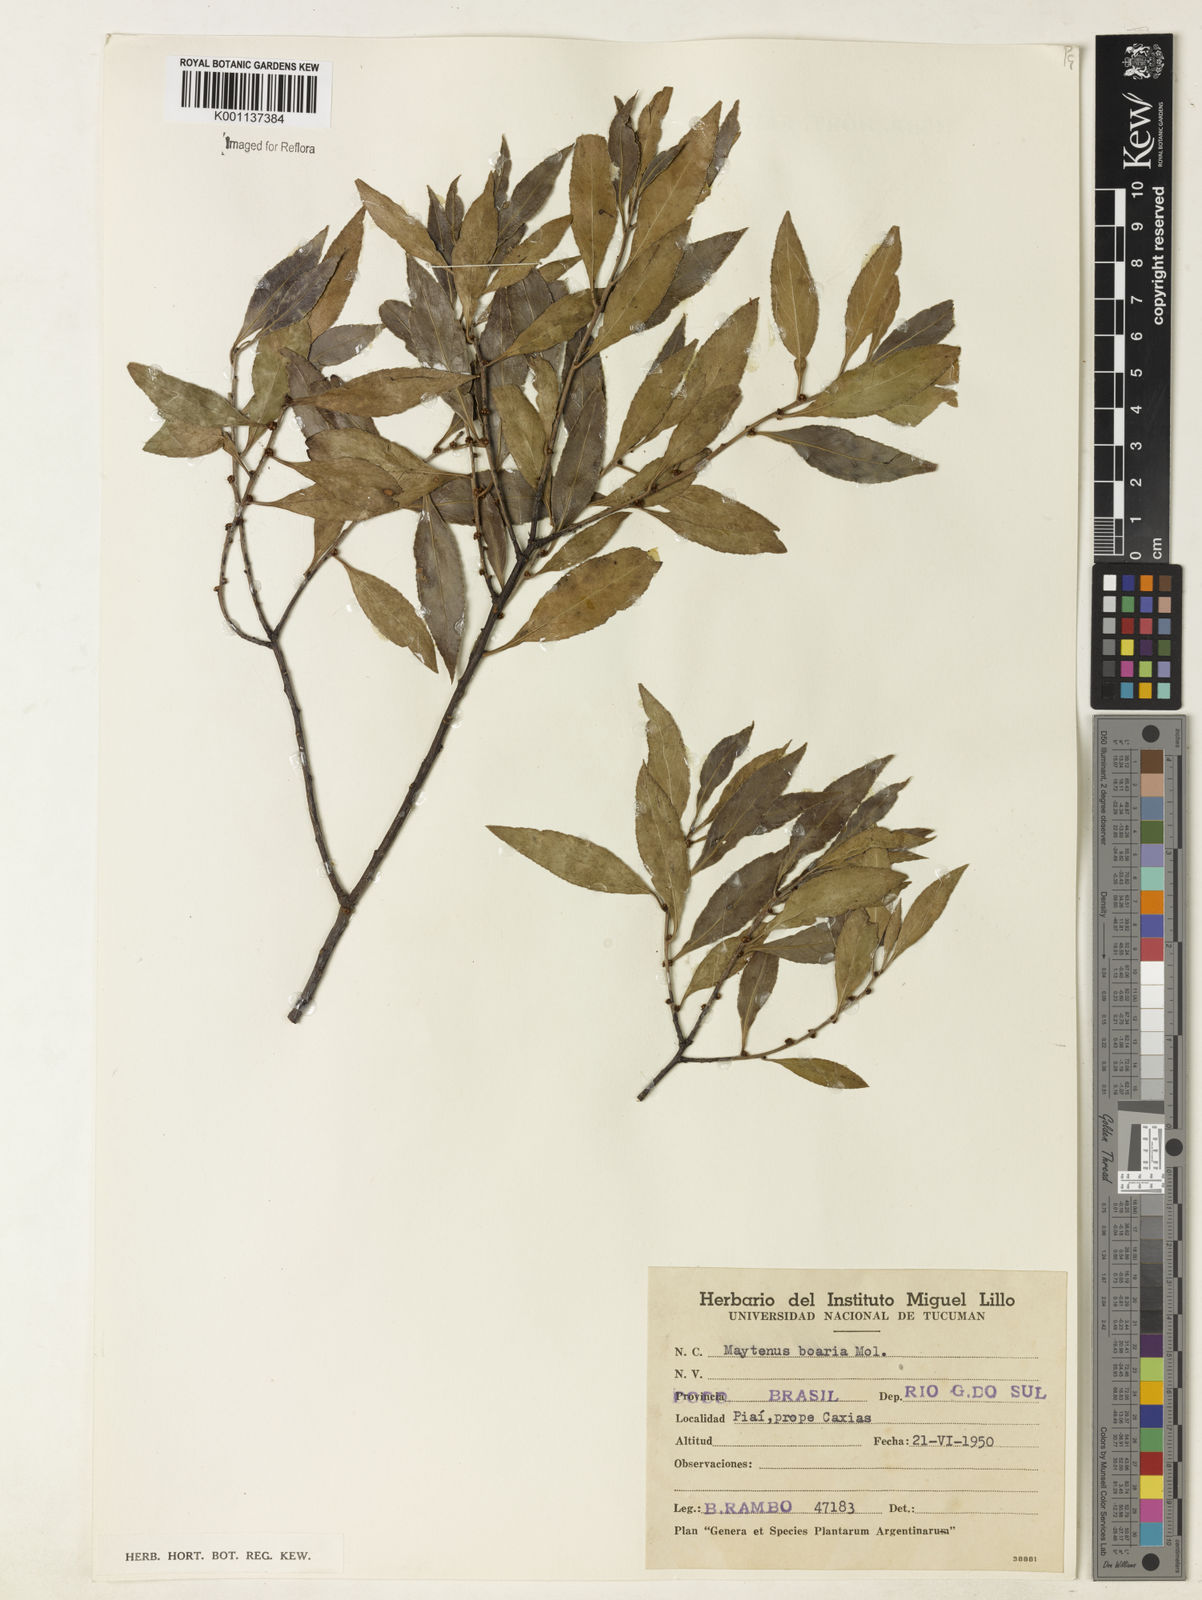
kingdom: Plantae
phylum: Tracheophyta
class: Magnoliopsida
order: Celastrales
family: Celastraceae
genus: Maytenus
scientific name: Maytenus boaria
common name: Mayten
